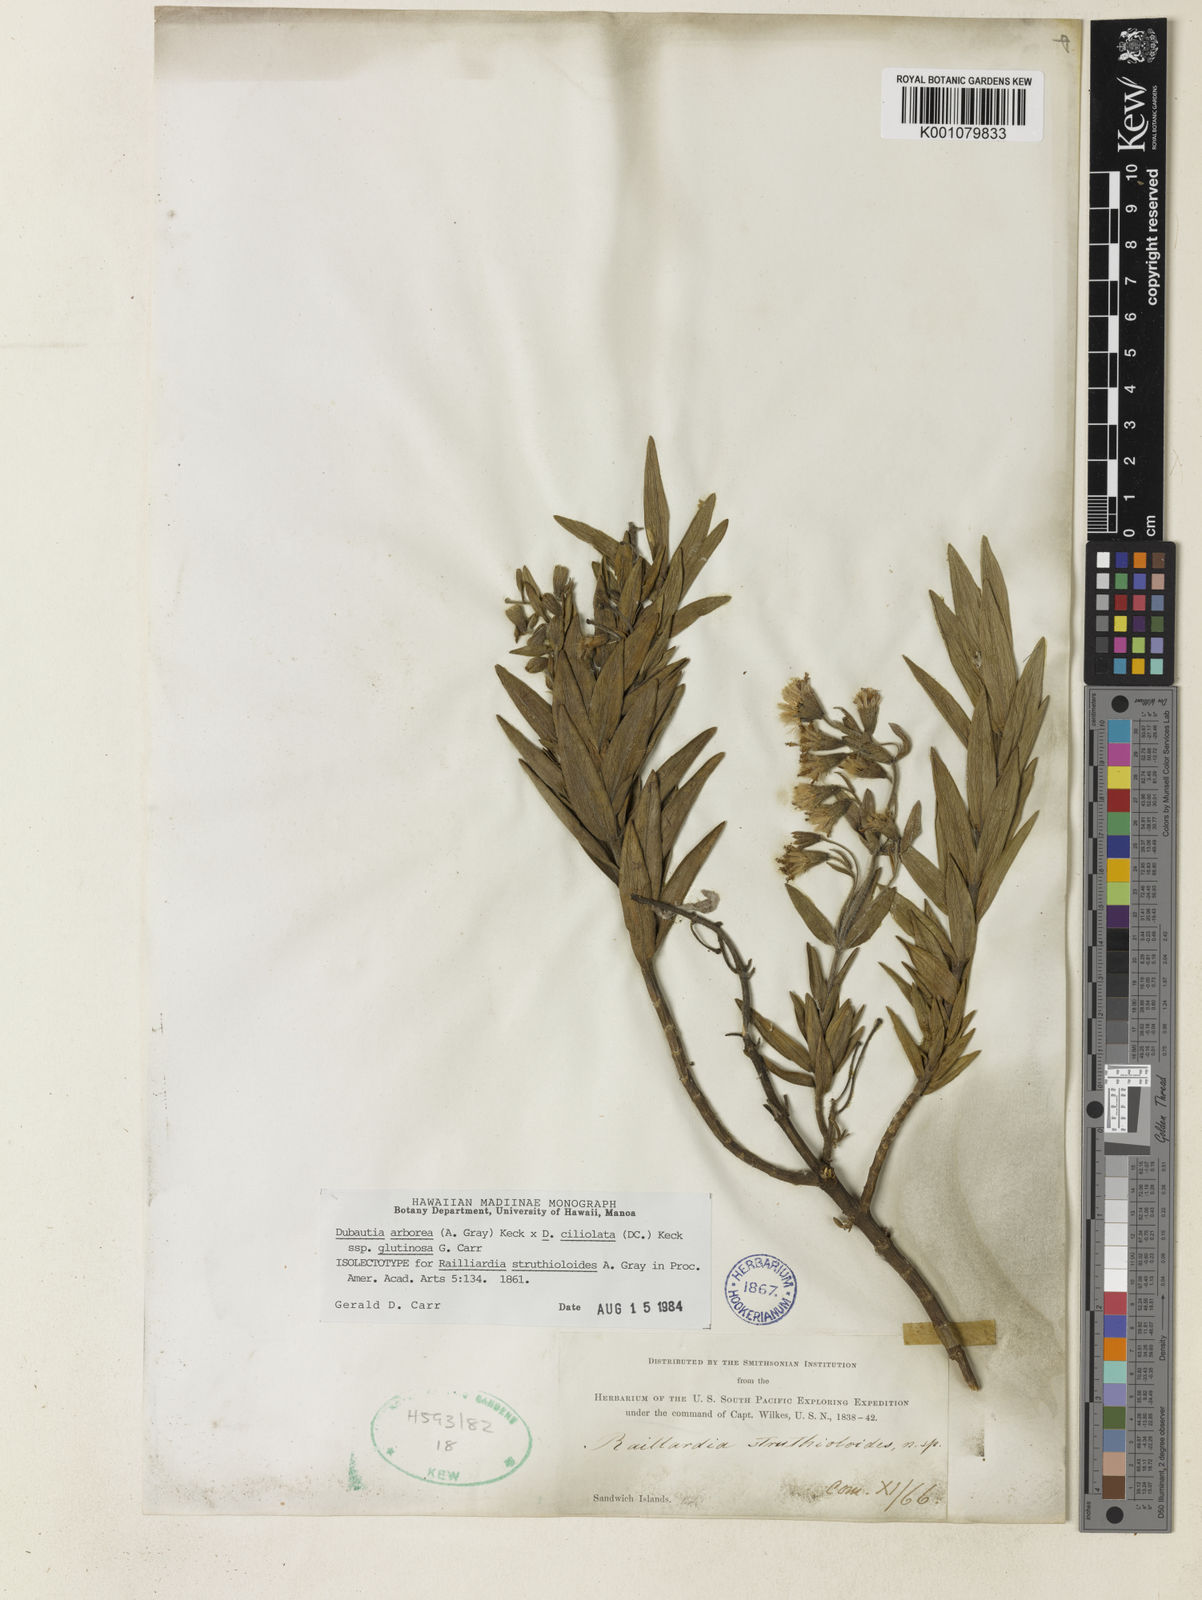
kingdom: Plantae
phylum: Tracheophyta
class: Magnoliopsida
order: Asterales
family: Asteraceae
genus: Dubautia
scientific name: Dubautia arborea
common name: Tree dubautia
